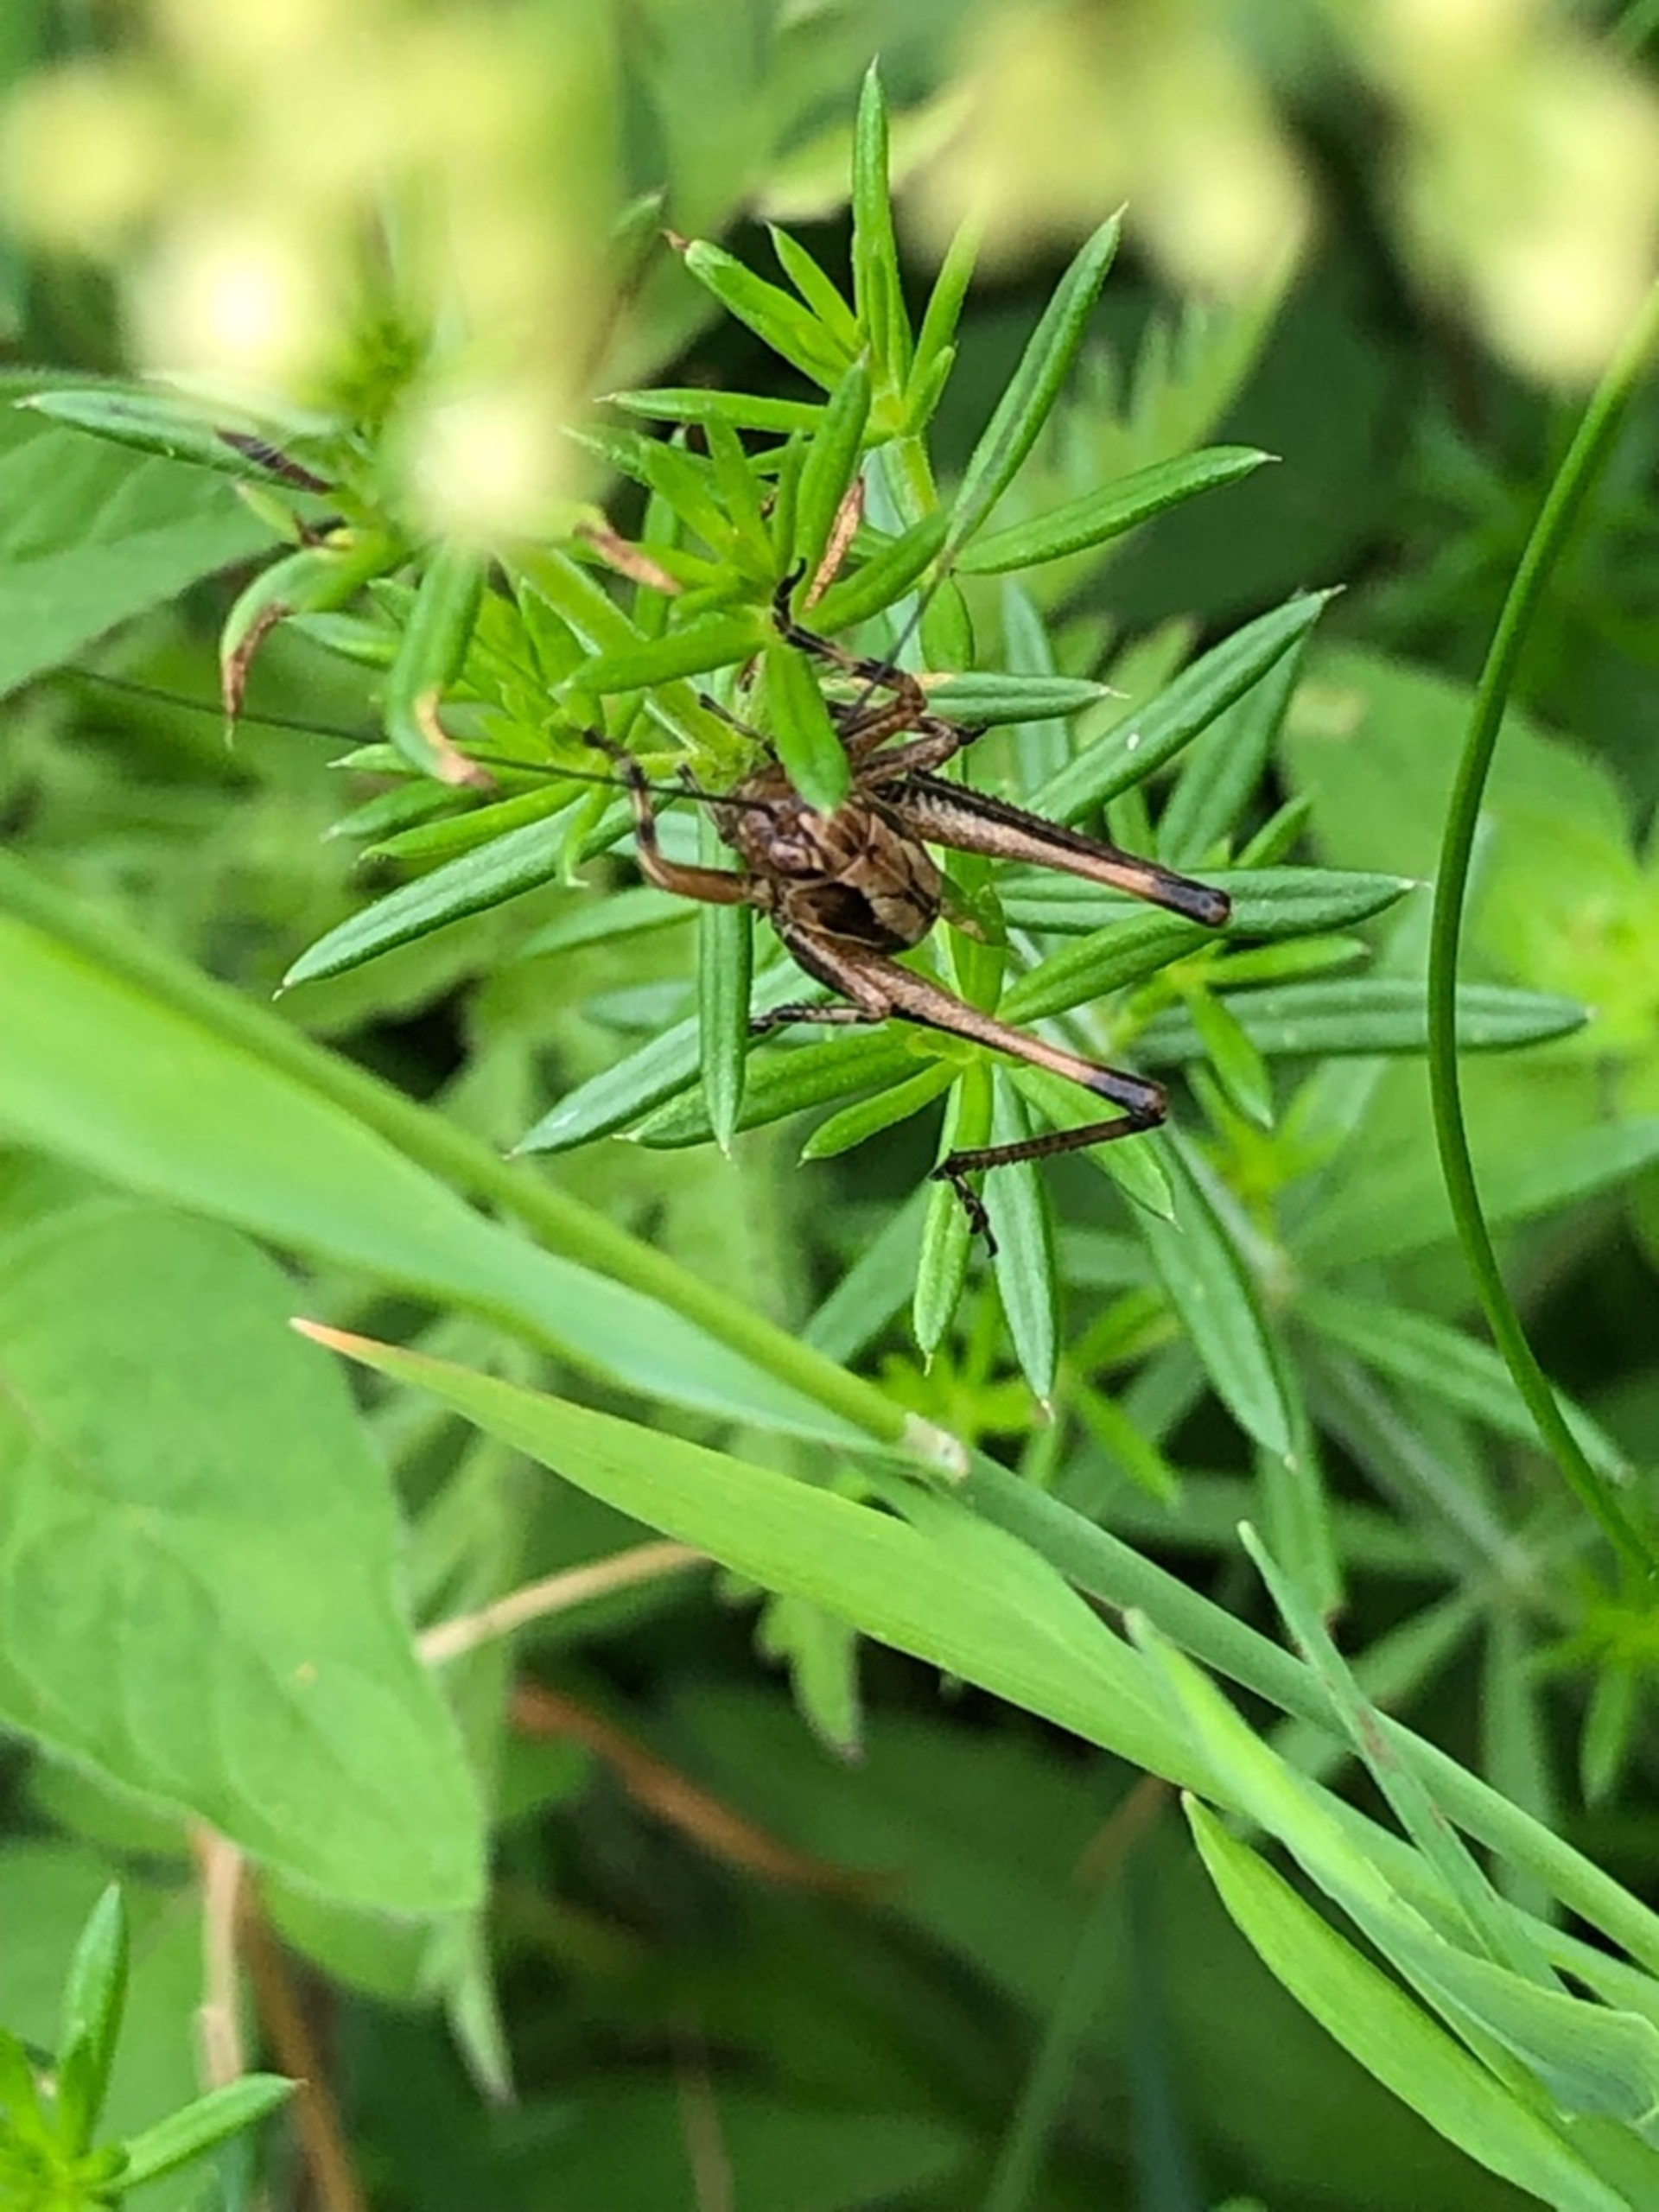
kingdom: Animalia
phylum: Arthropoda
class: Insecta
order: Orthoptera
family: Tettigoniidae
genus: Pholidoptera
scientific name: Pholidoptera griseoaptera
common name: Buskgræshoppe
